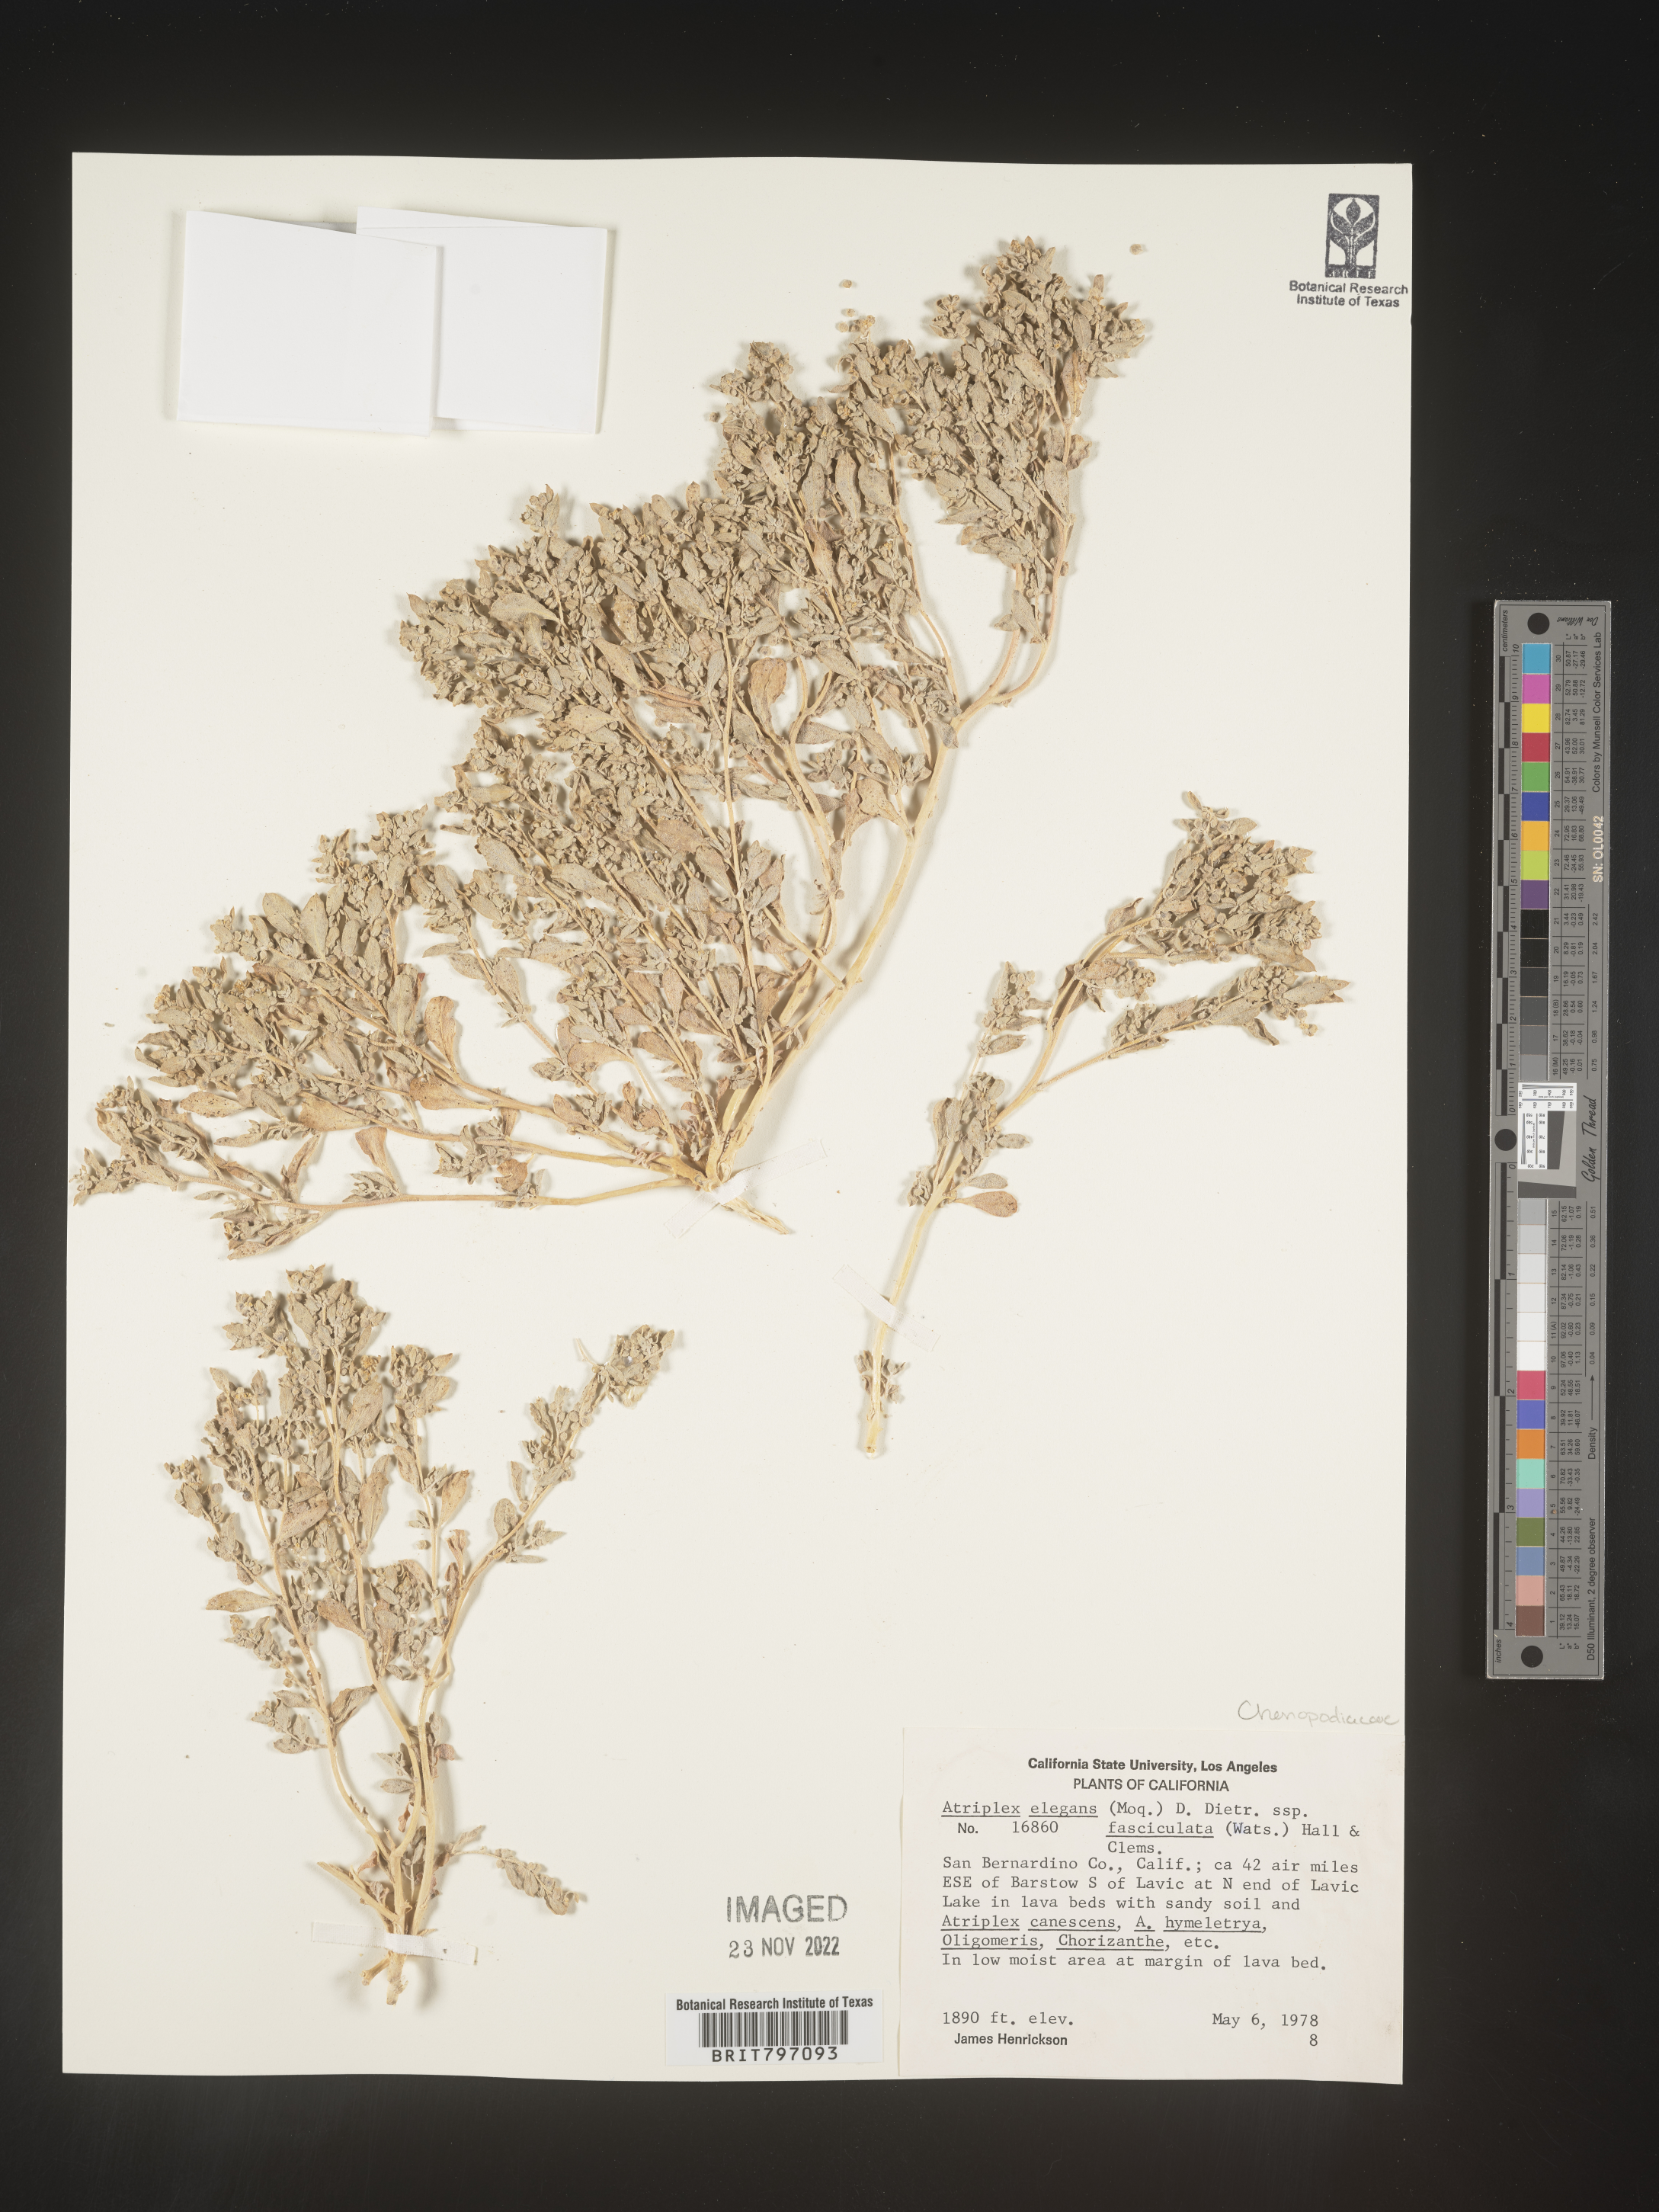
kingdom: Plantae
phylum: Tracheophyta
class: Magnoliopsida
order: Caryophyllales
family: Amaranthaceae
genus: Atriplex
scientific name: Atriplex
